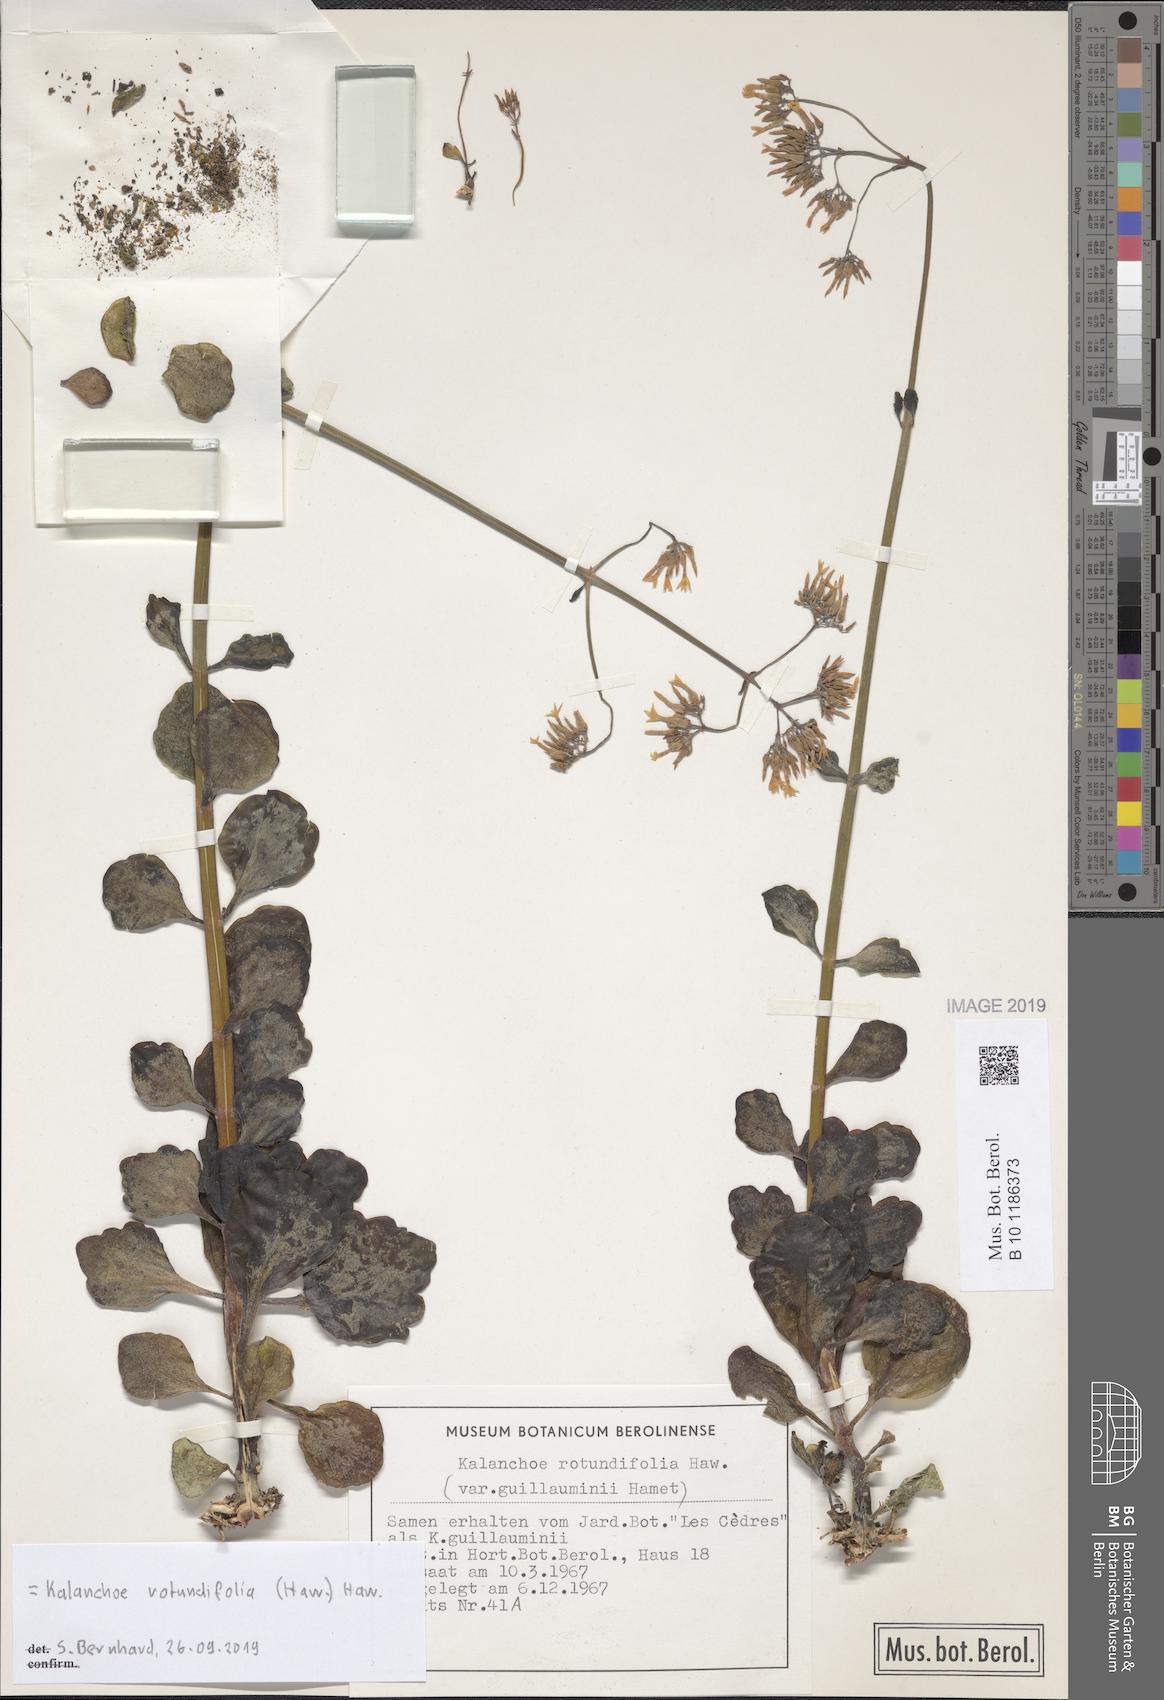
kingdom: Plantae
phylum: Tracheophyta
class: Magnoliopsida
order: Saxifragales
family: Crassulaceae
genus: Kalanchoe
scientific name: Kalanchoe rotundifolia
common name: Common kalanchoe
